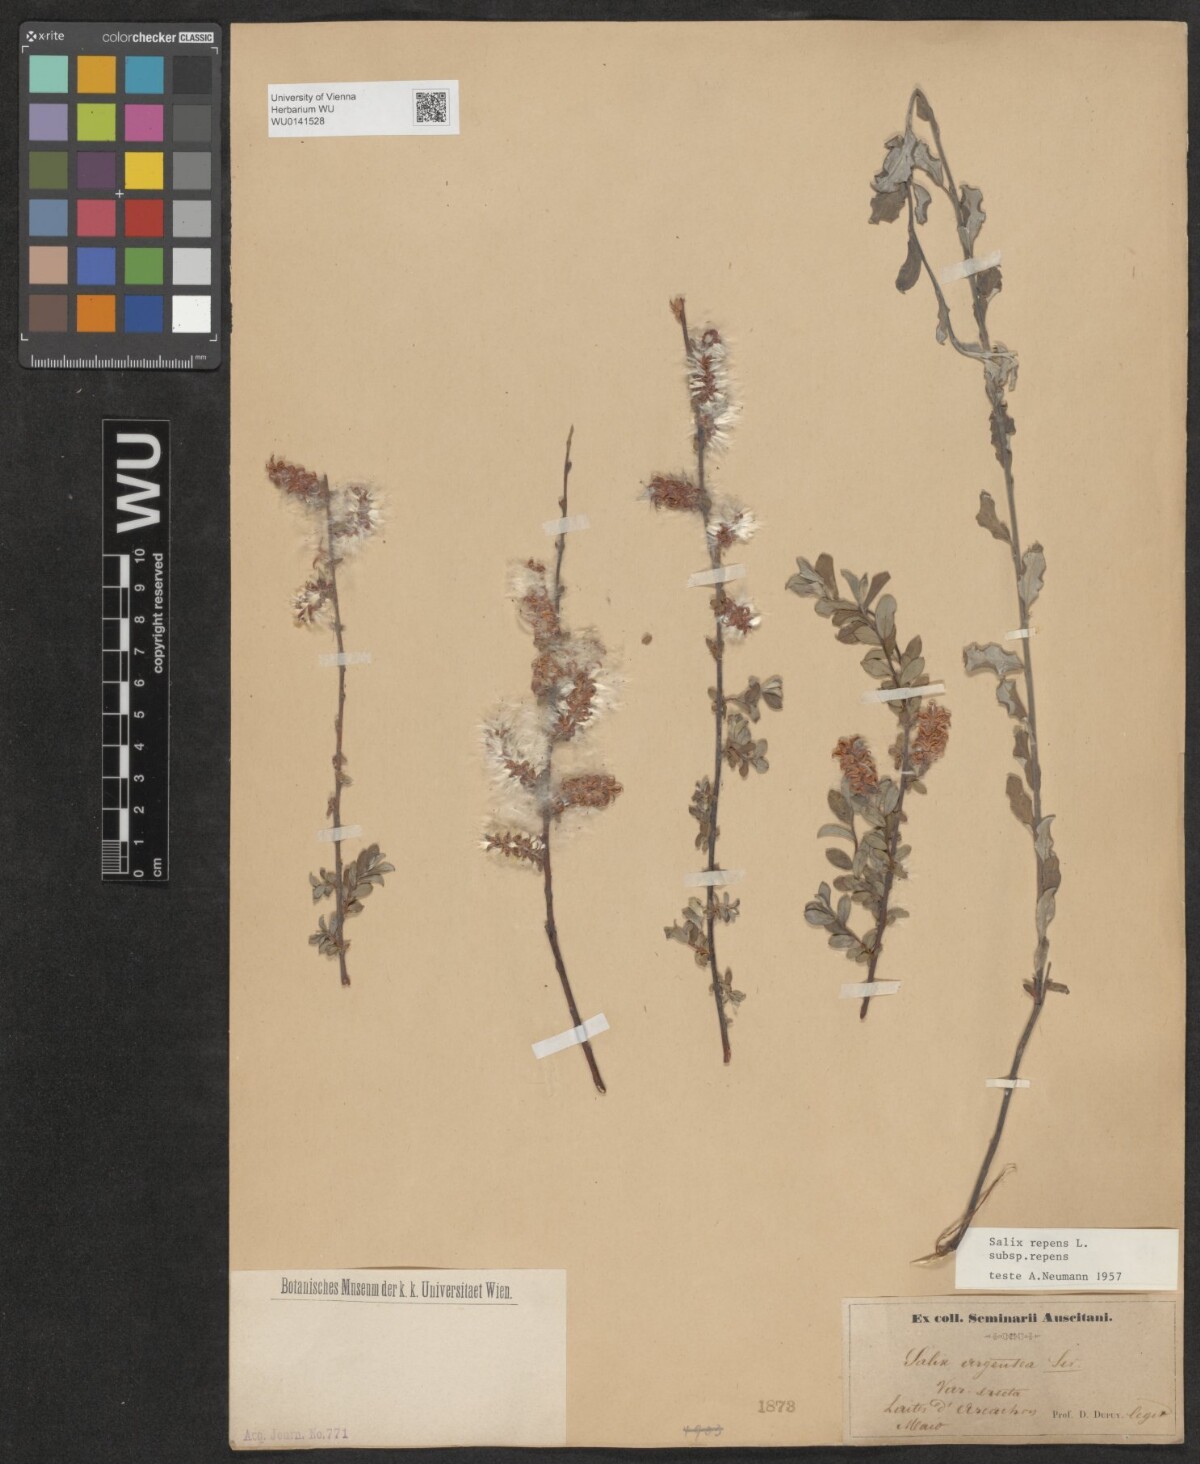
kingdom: Plantae
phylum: Tracheophyta
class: Magnoliopsida
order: Malpighiales
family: Salicaceae
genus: Salix
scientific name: Salix repens
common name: Creeping willow
